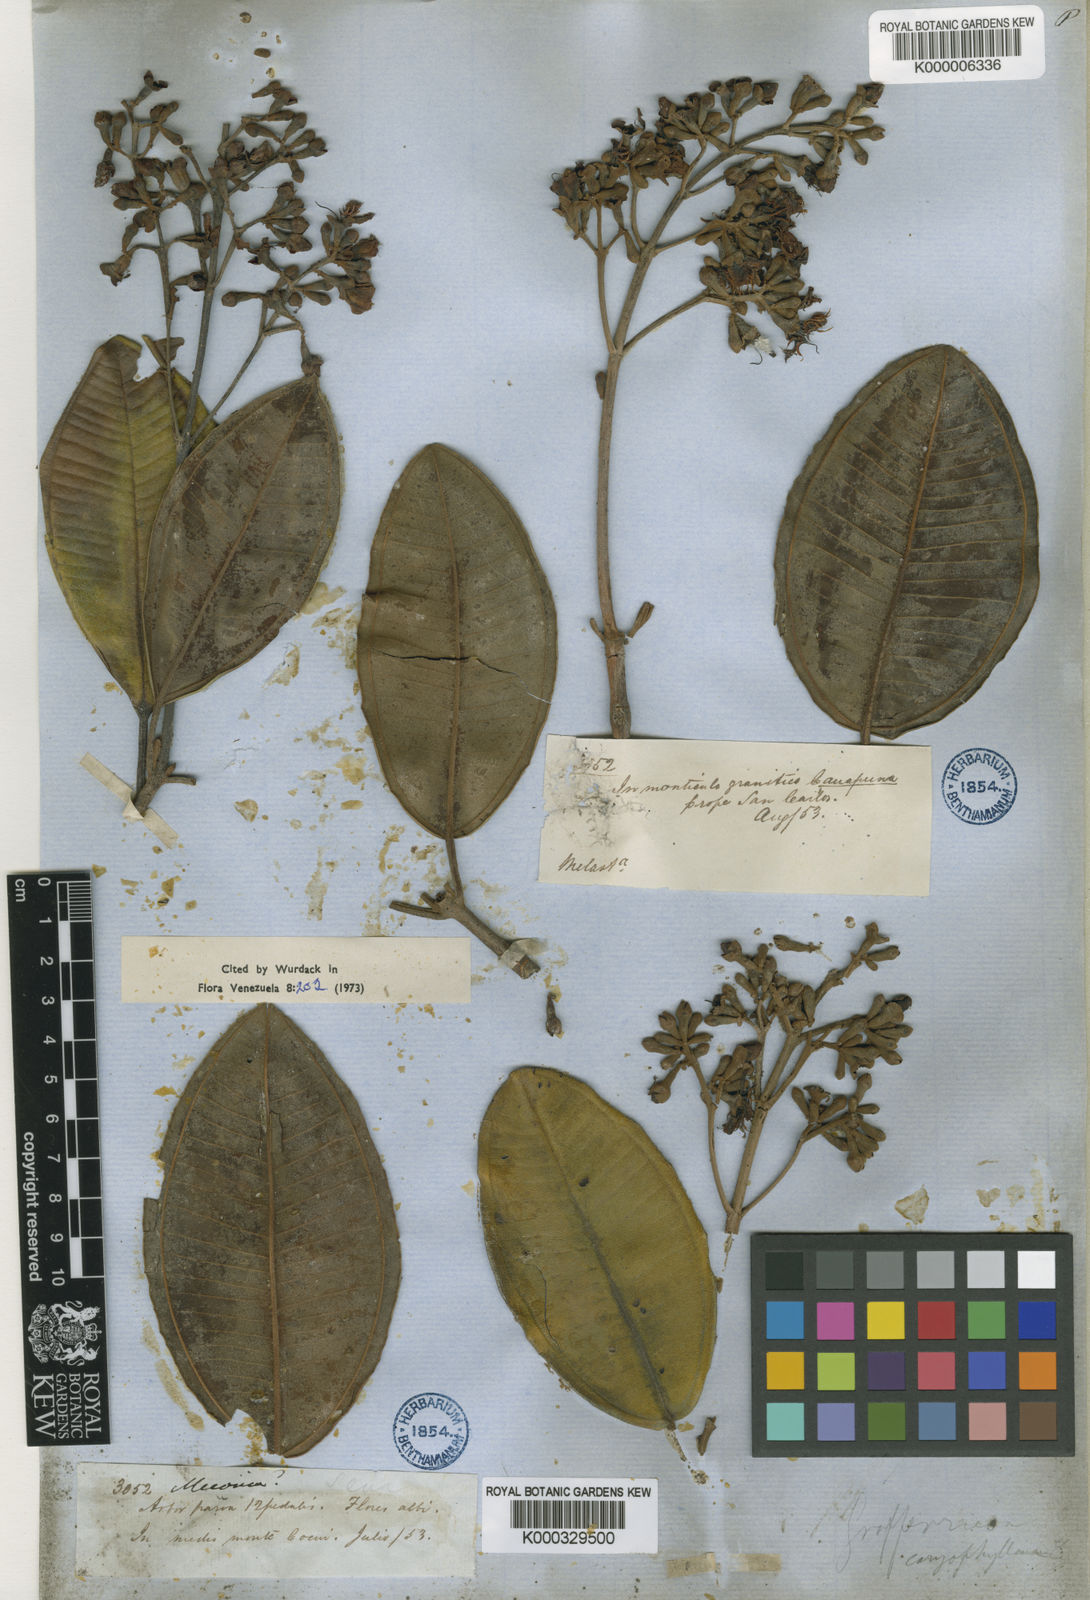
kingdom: Plantae
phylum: Tracheophyta
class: Magnoliopsida
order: Myrtales
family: Melastomataceae
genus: Graffenrieda
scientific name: Graffenrieda caryophyllea
